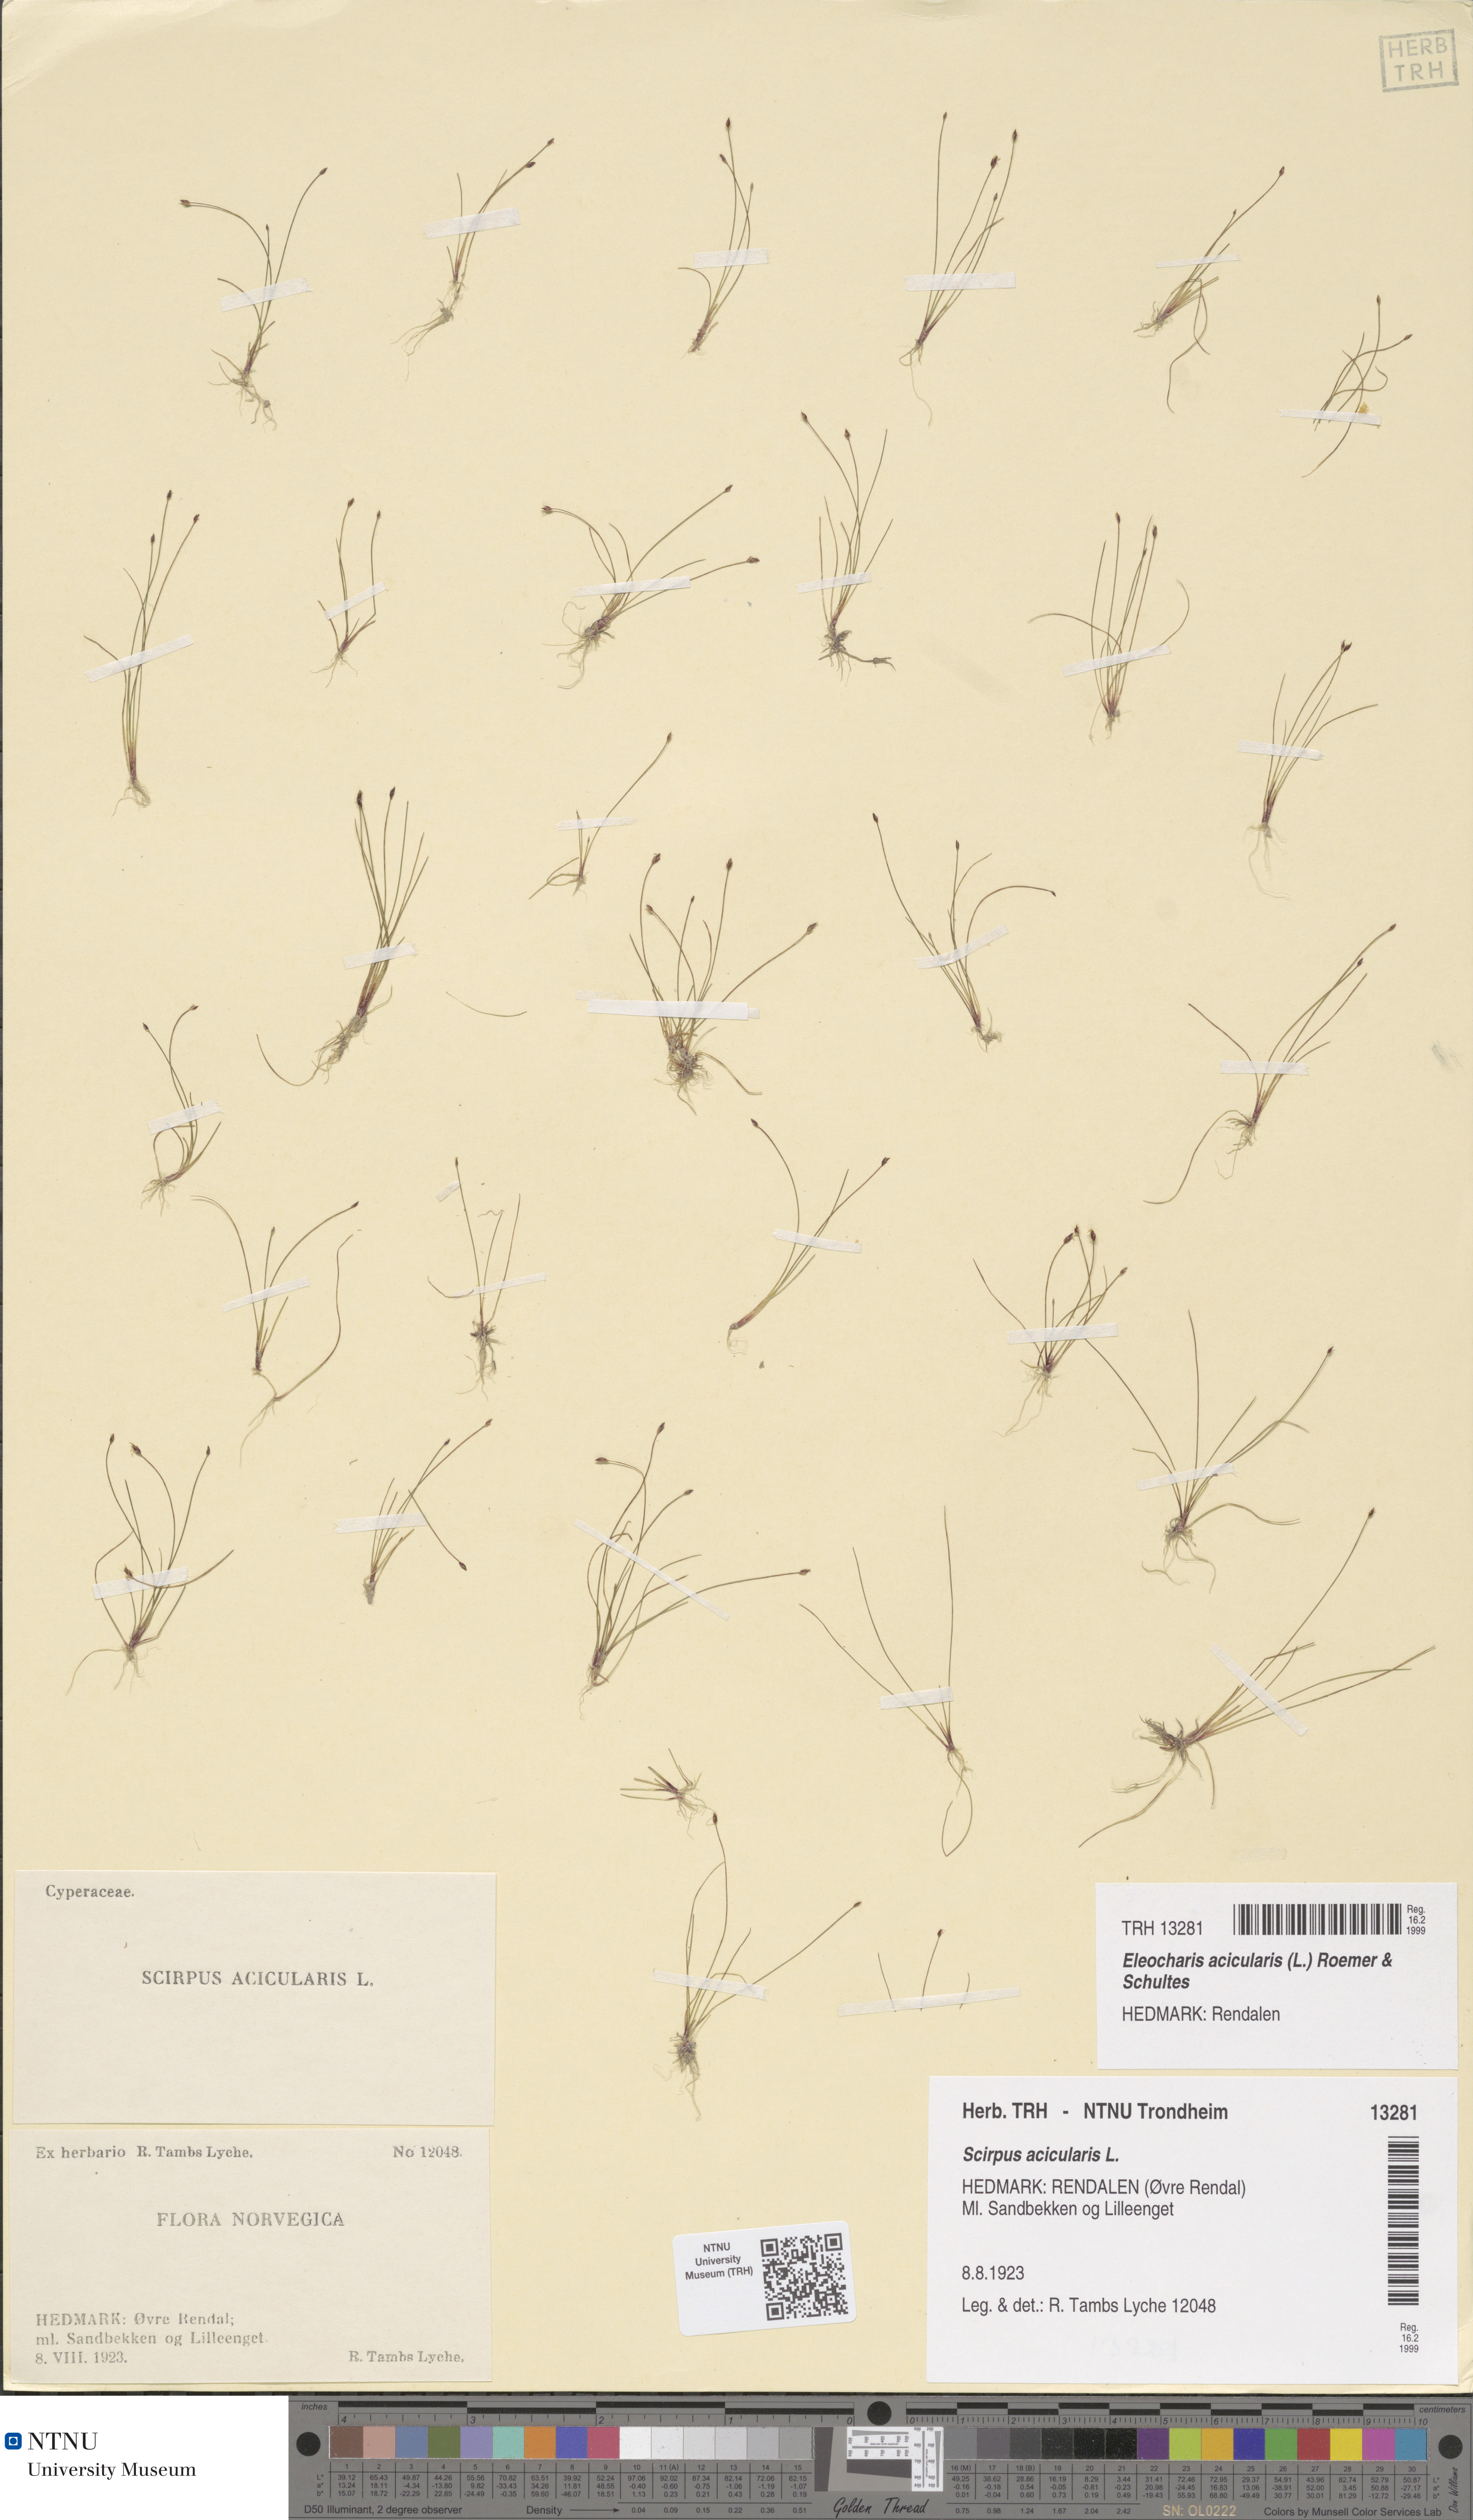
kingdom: Plantae
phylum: Tracheophyta
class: Liliopsida
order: Poales
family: Cyperaceae
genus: Eleocharis
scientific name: Eleocharis acicularis
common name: Needle spike-rush
